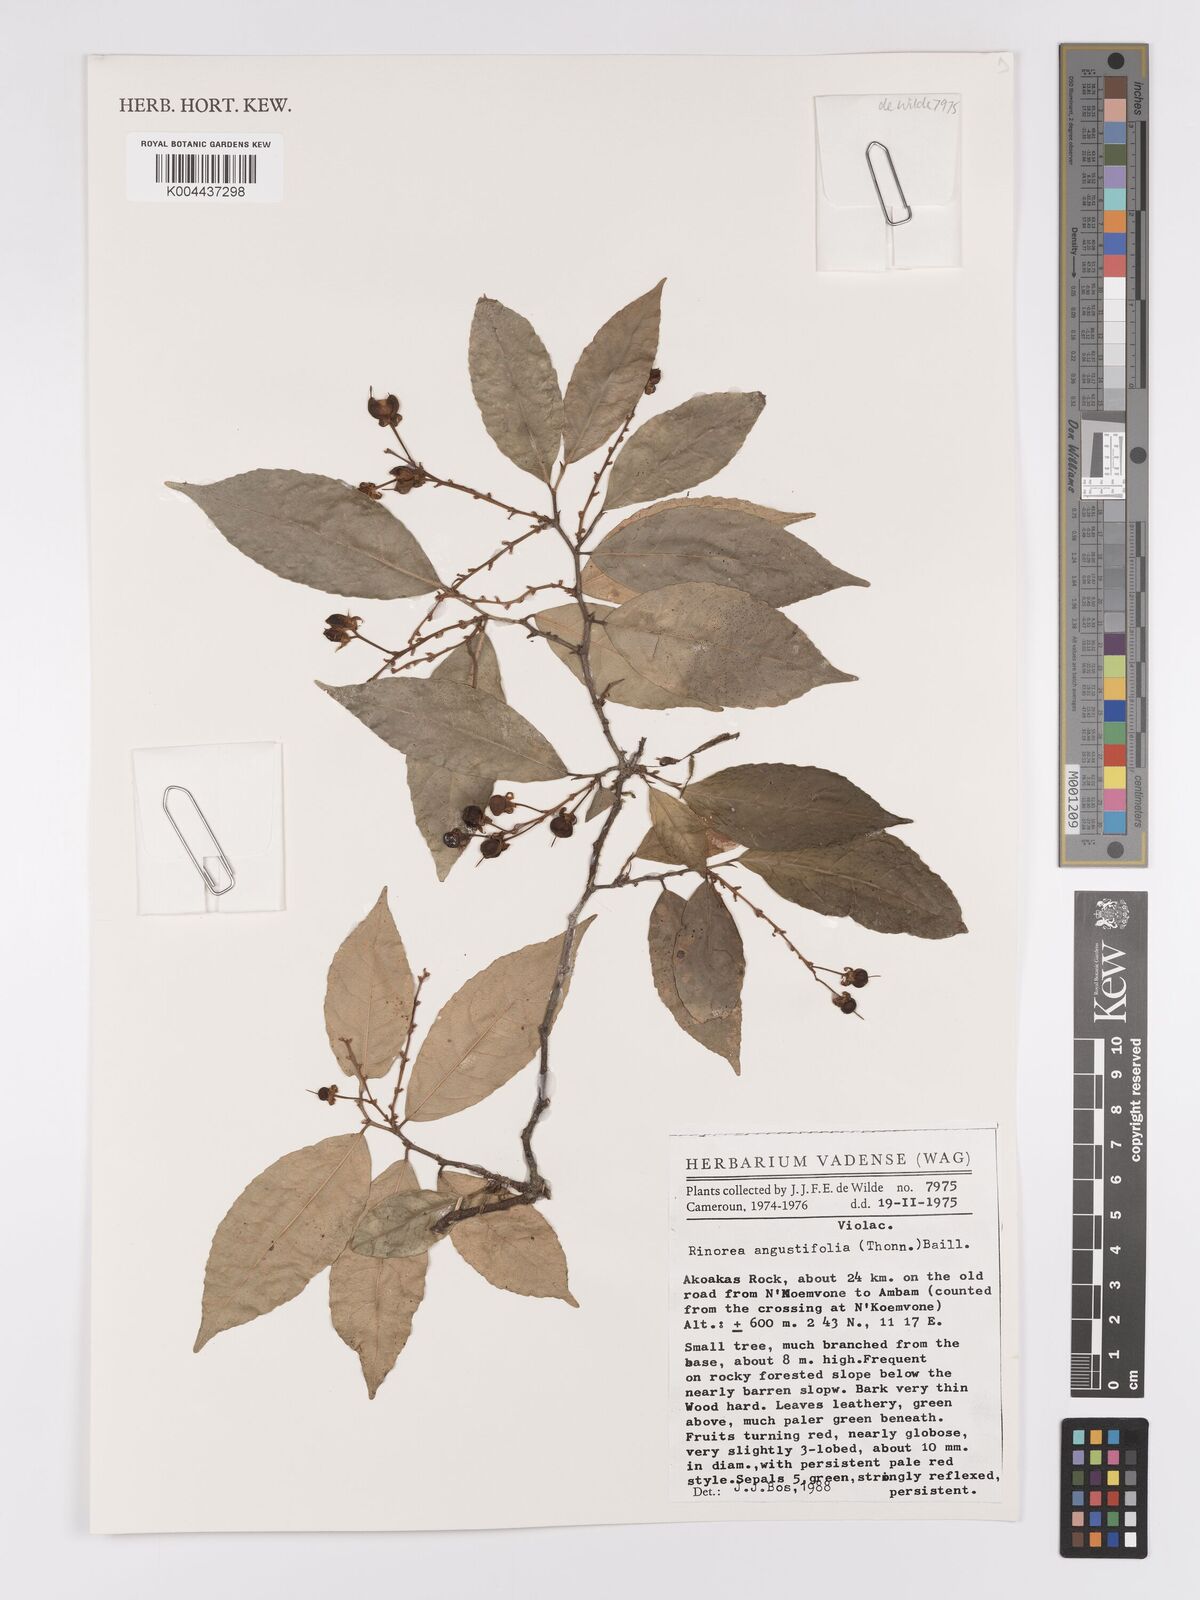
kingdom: Plantae
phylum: Tracheophyta
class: Magnoliopsida
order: Malpighiales
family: Violaceae
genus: Rinorea
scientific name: Rinorea angustifolia
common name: White violet-bush
